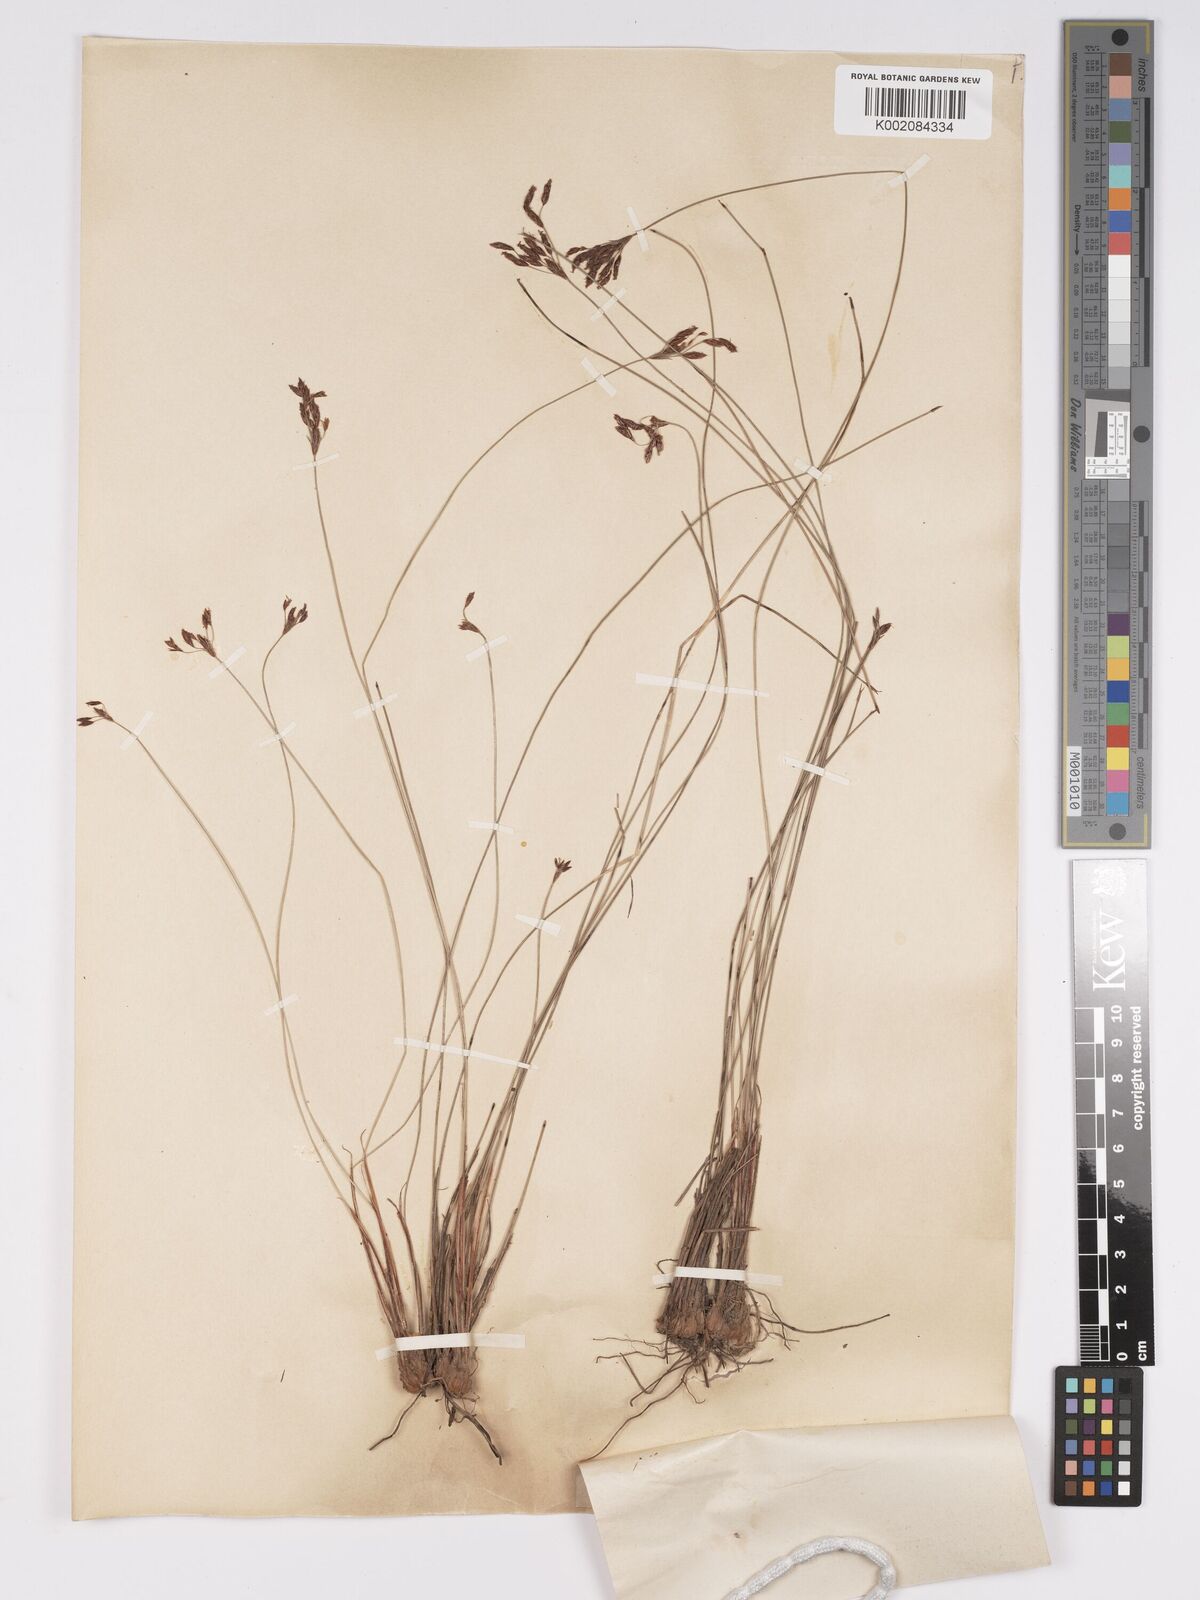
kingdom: Plantae
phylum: Tracheophyta
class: Liliopsida
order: Poales
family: Cyperaceae
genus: Bulbostylis
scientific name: Bulbostylis trichobasis
